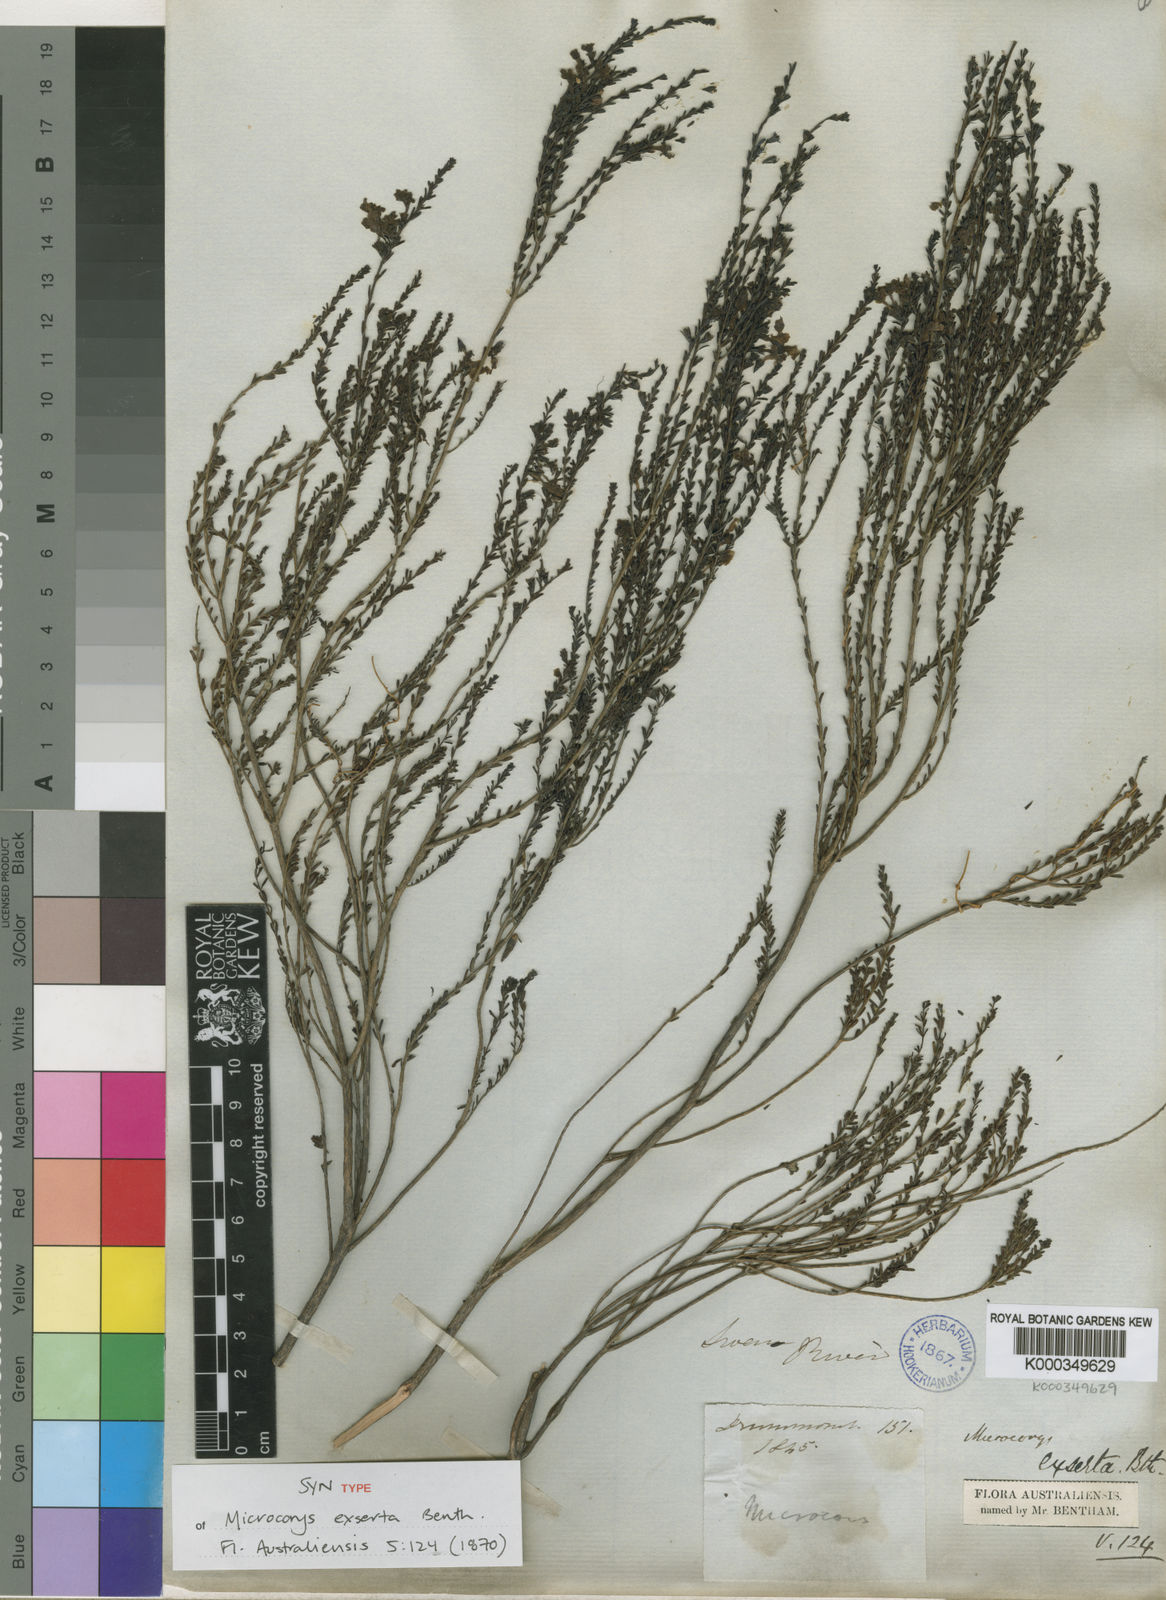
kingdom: Plantae
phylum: Tracheophyta
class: Magnoliopsida
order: Lamiales
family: Lamiaceae
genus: Microcorys
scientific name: Microcorys exserta
